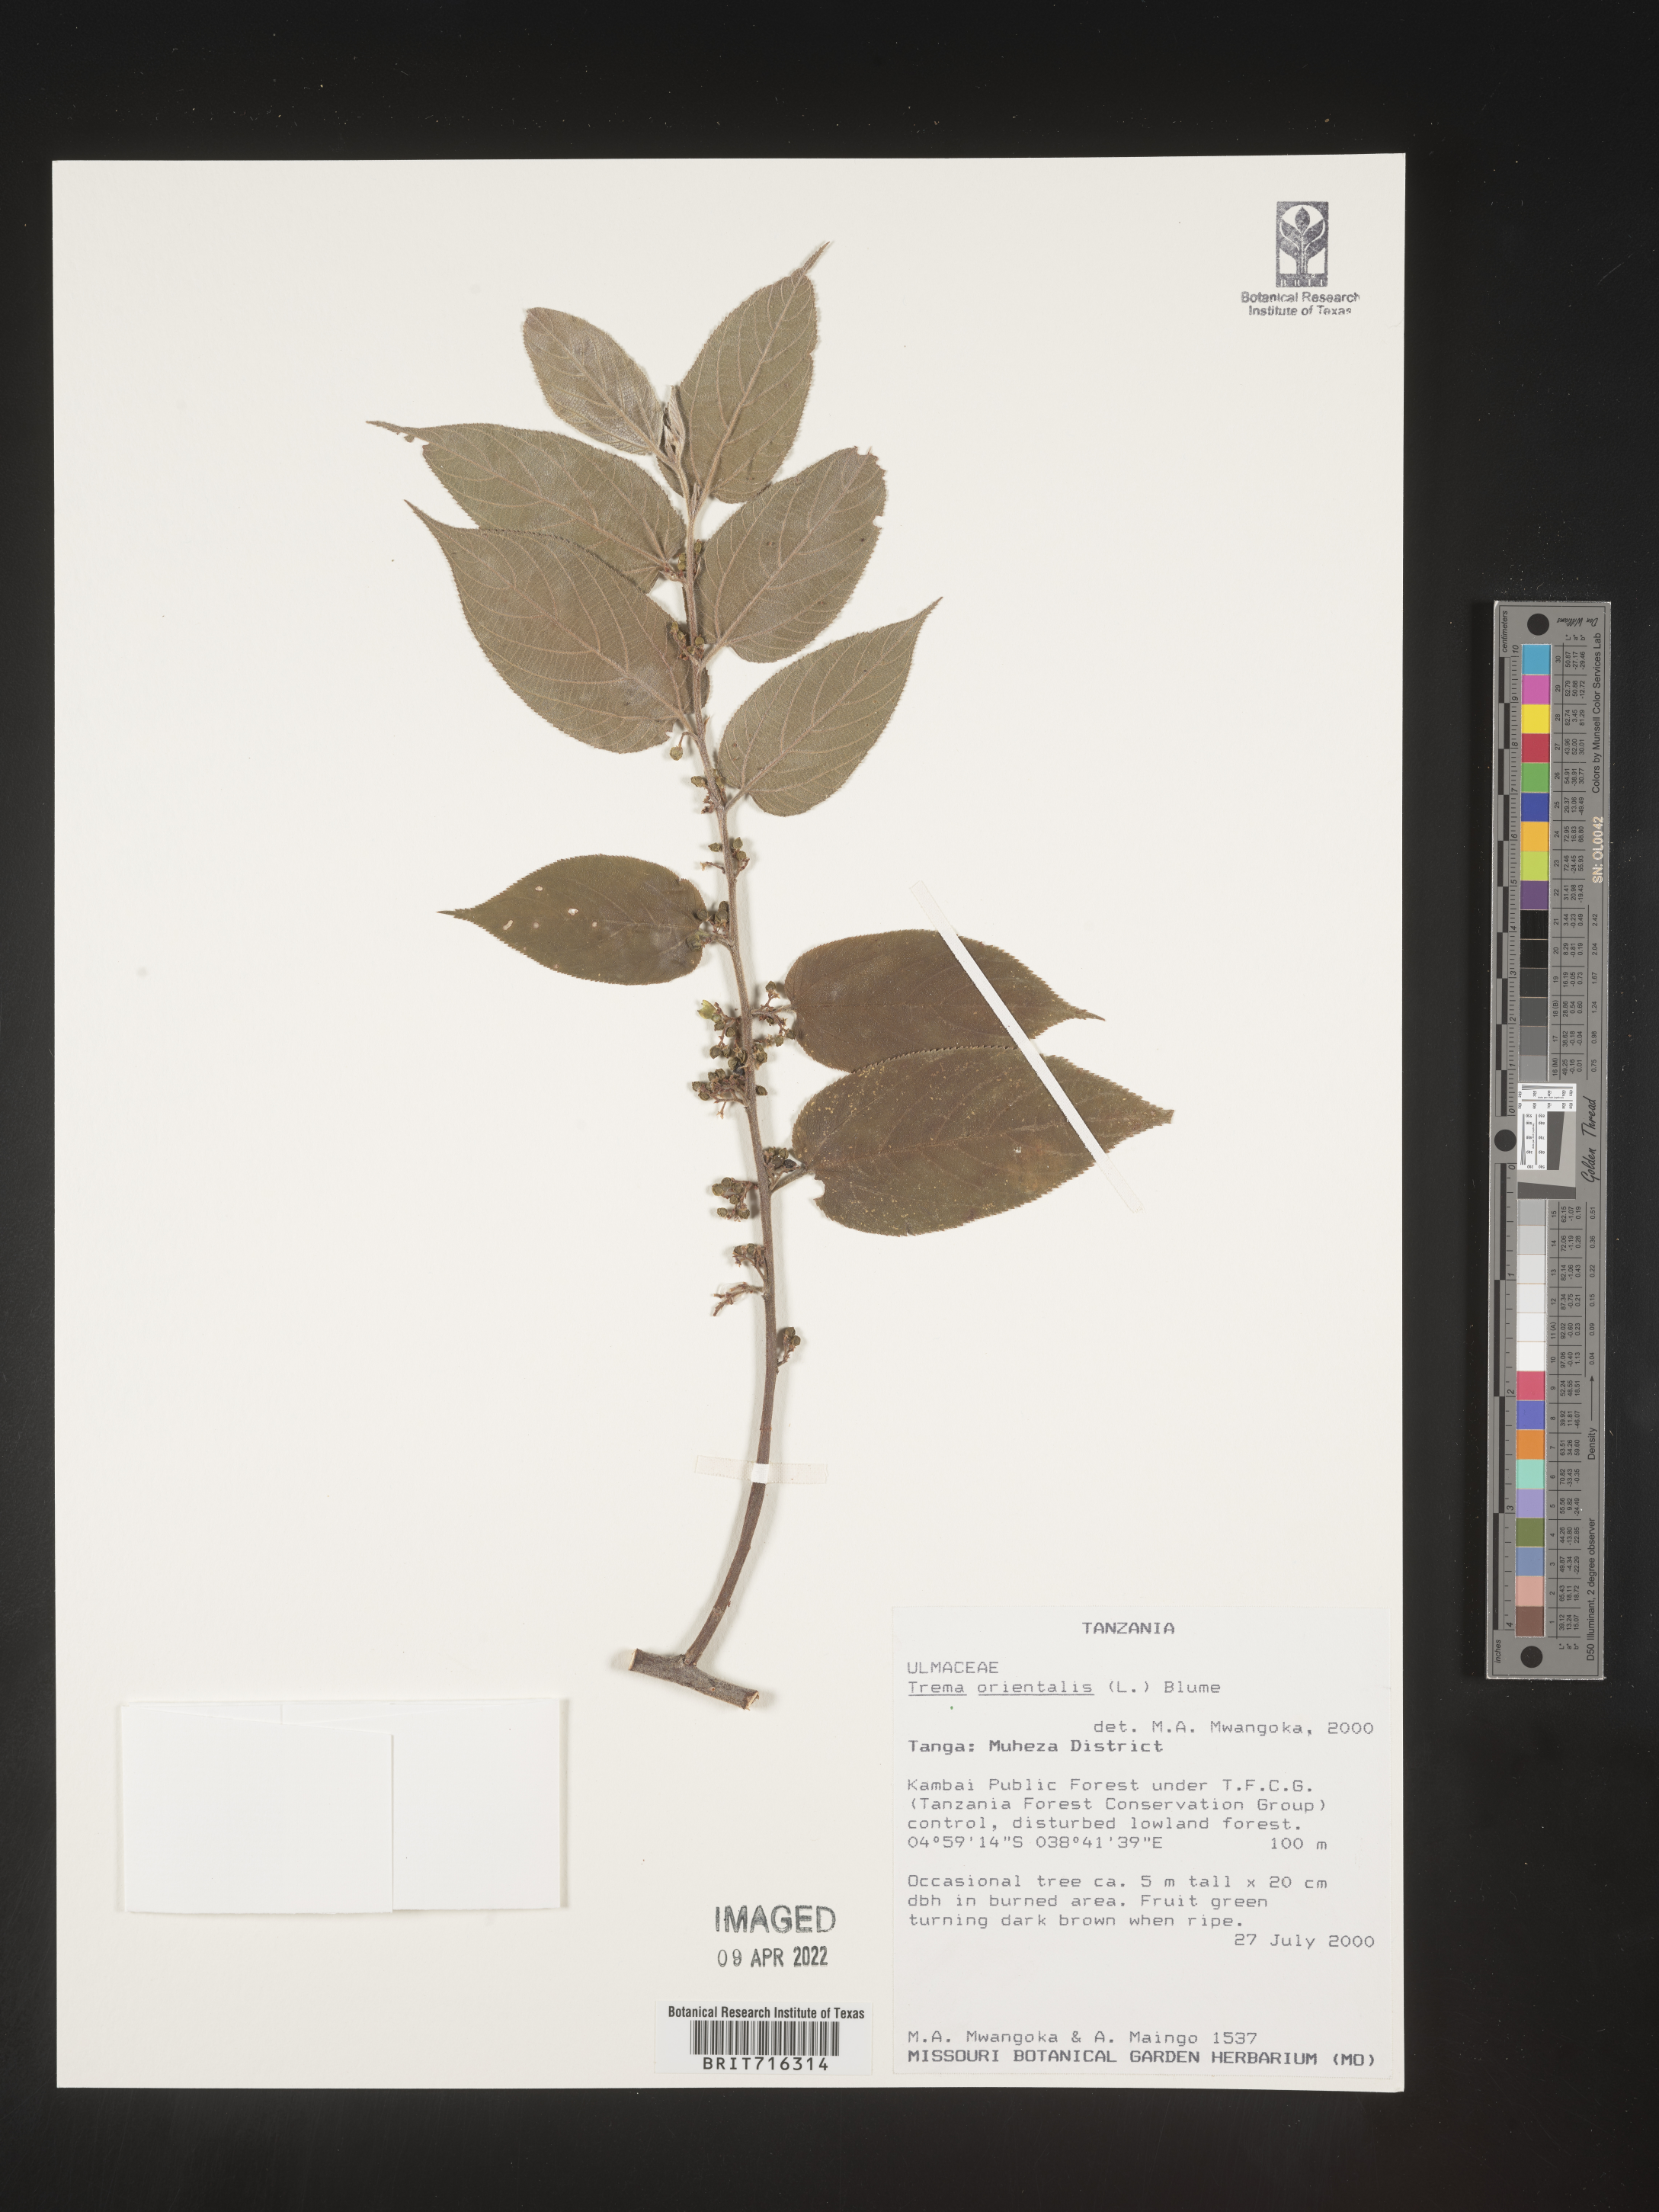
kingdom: Plantae
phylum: Tracheophyta
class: Magnoliopsida
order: Rosales
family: Cannabaceae
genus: Trema
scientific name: Trema
